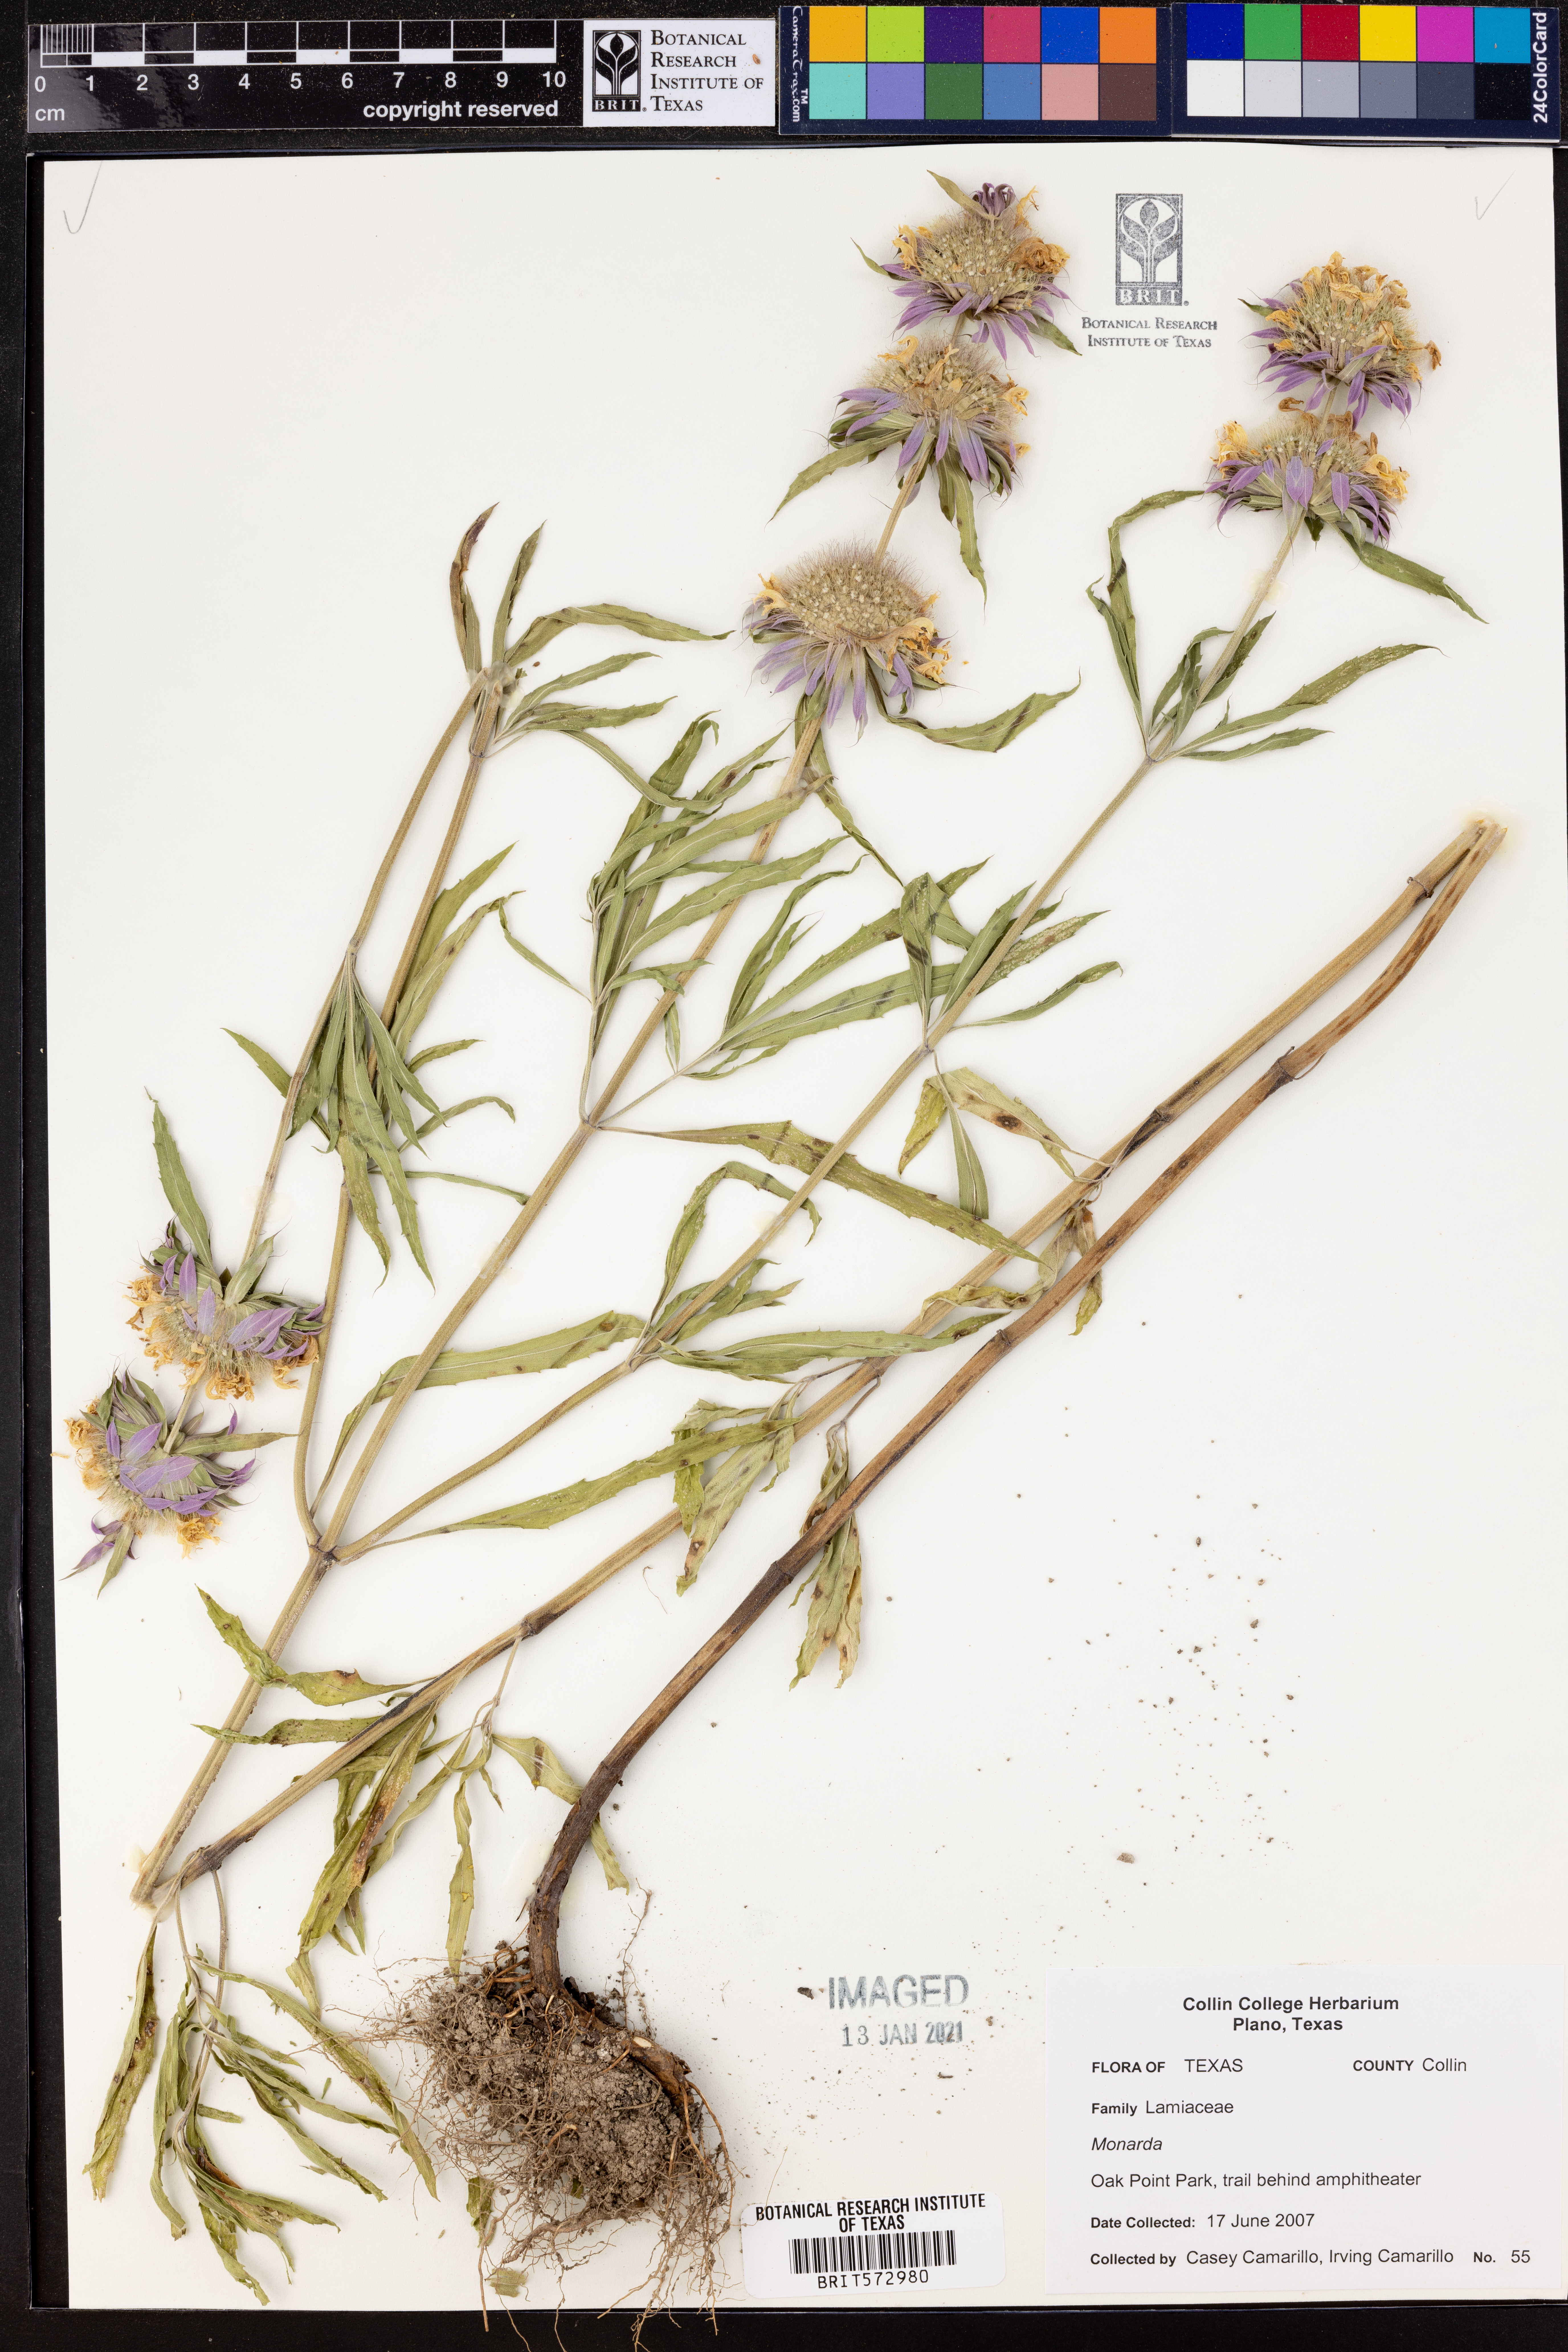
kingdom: Plantae
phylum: Tracheophyta
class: Magnoliopsida
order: Lamiales
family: Lamiaceae
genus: Monarda
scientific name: Monarda
